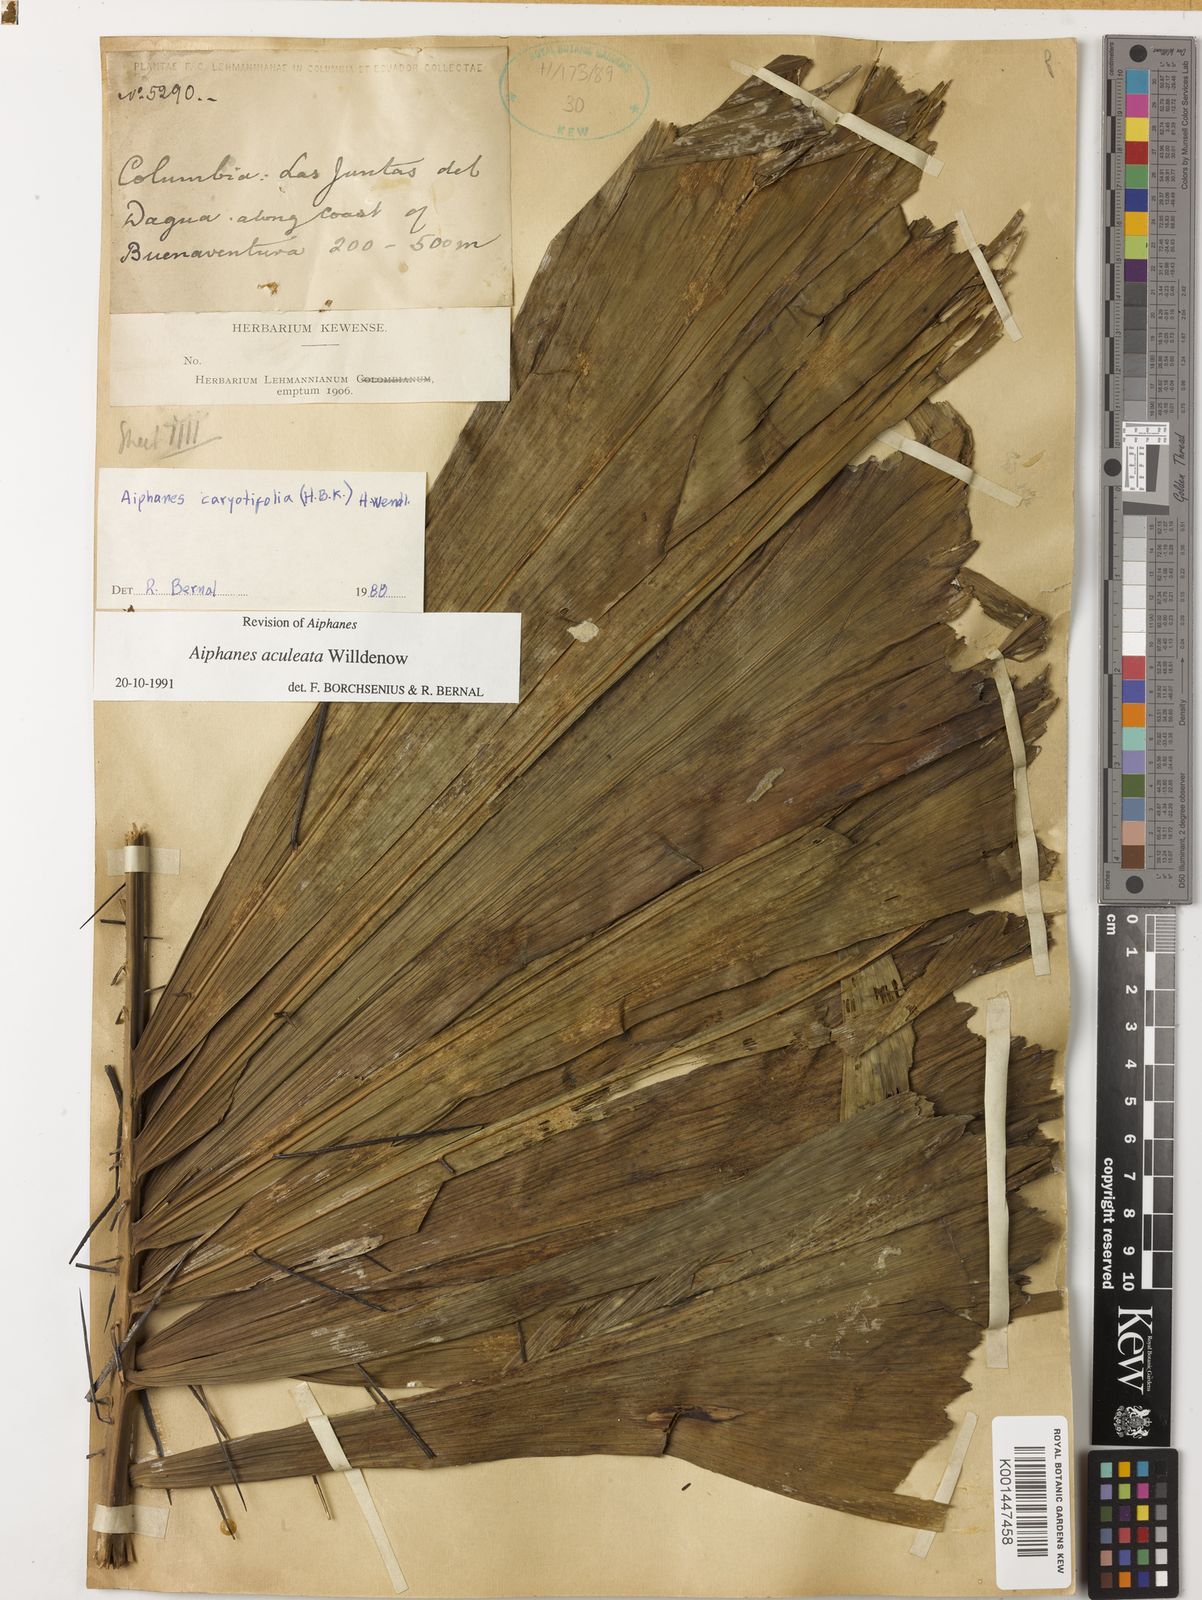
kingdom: Plantae
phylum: Tracheophyta
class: Liliopsida
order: Arecales
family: Arecaceae
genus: Aiphanes
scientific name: Aiphanes horrida
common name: Ruffle palm
